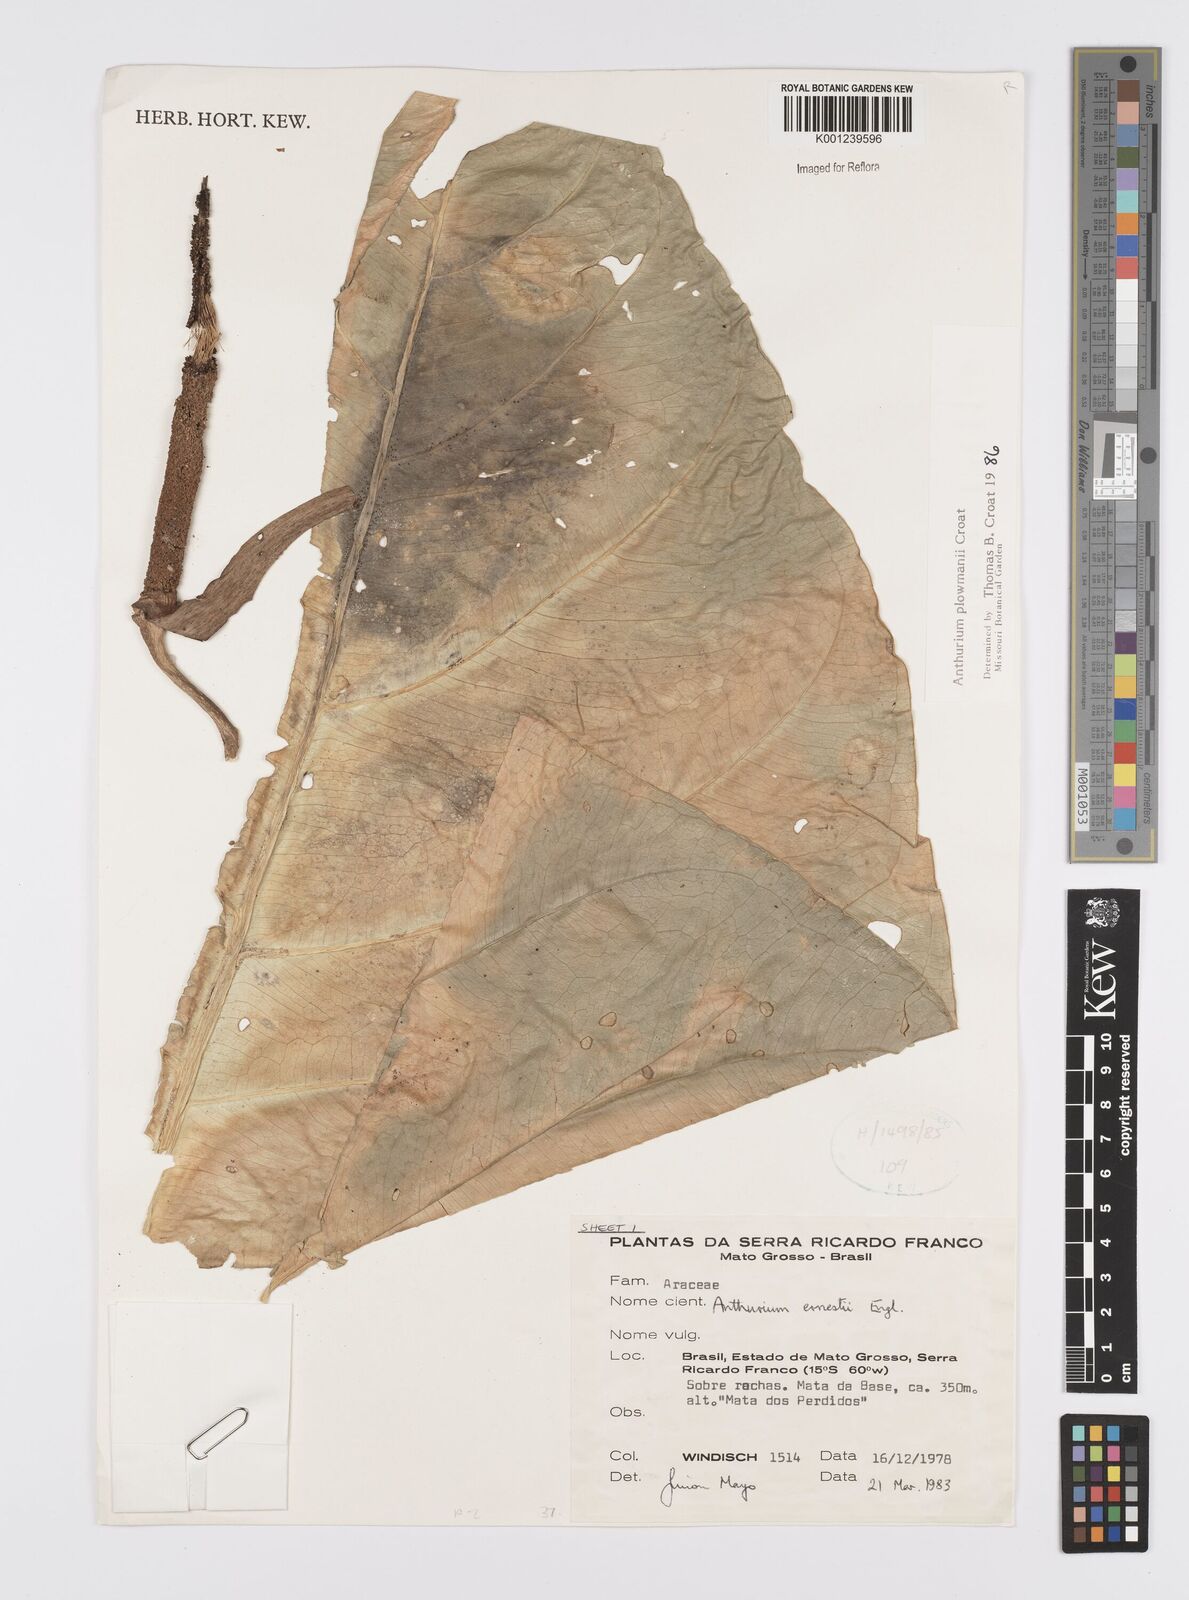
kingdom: Plantae
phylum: Tracheophyta
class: Liliopsida
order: Alismatales
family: Araceae
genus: Anthurium
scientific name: Anthurium plowmanii
